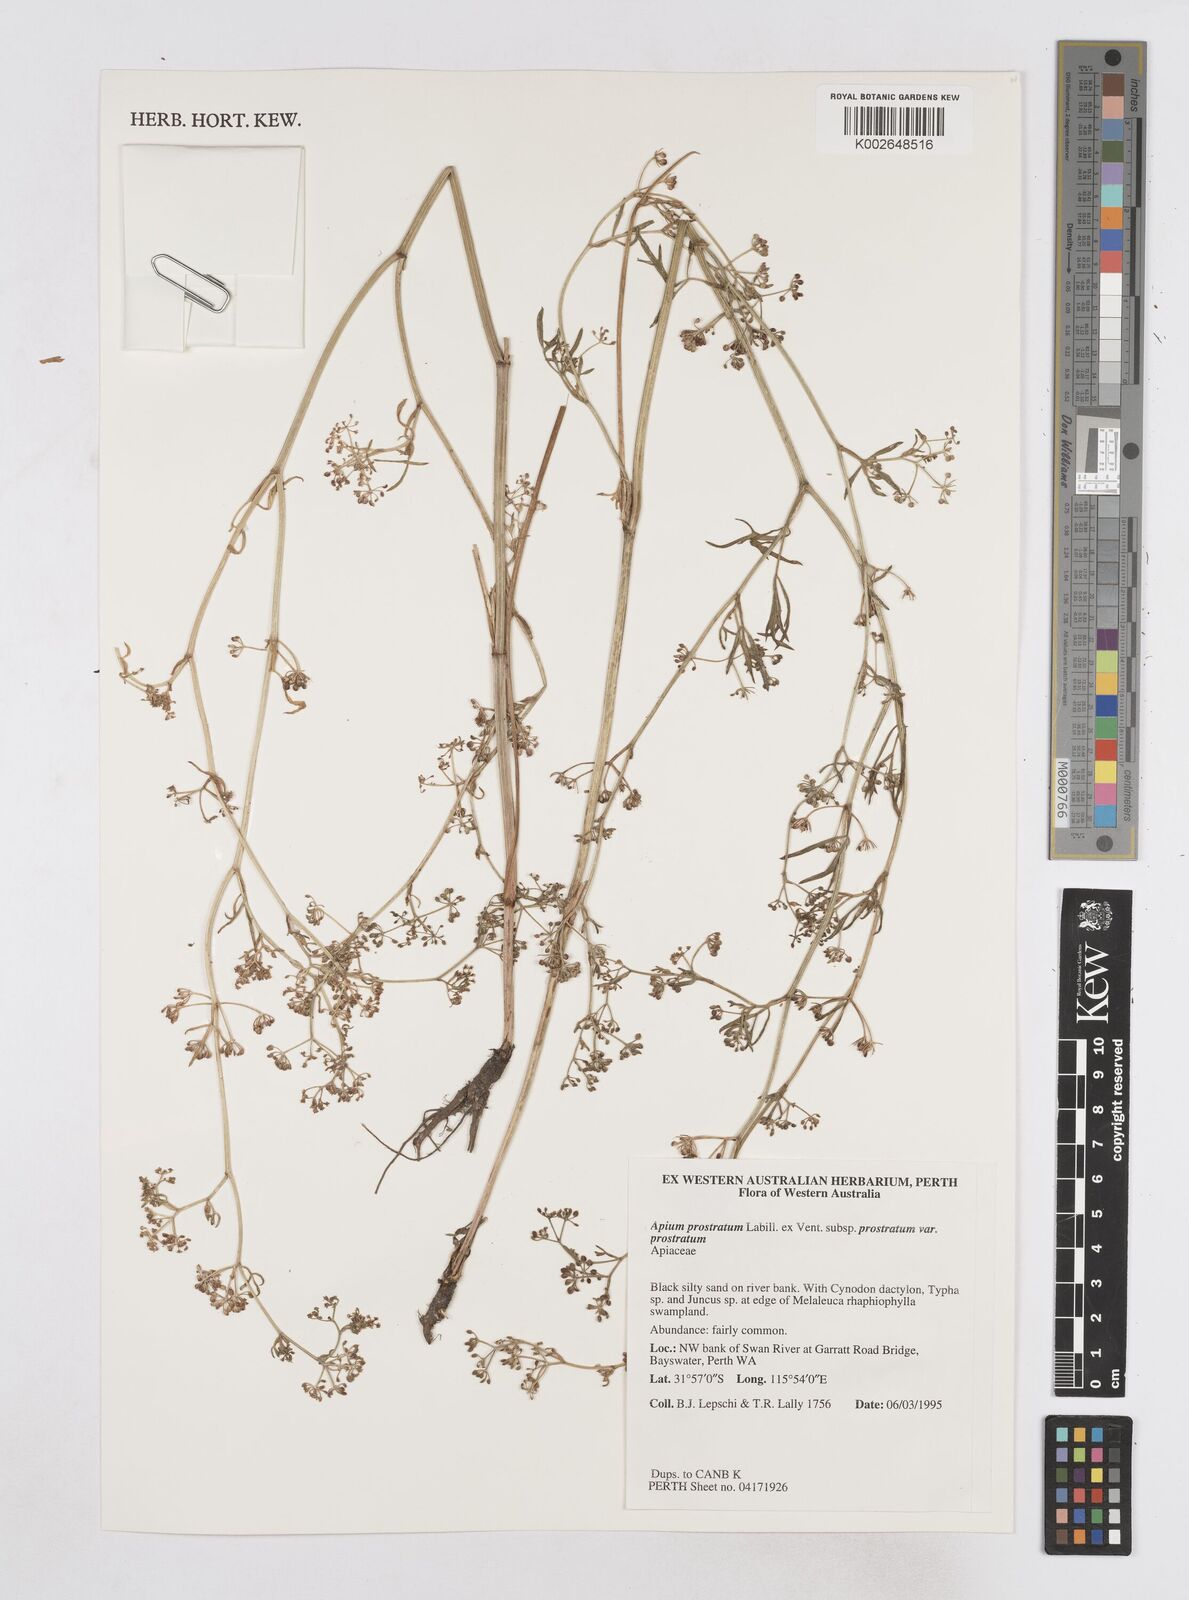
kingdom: Plantae
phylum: Tracheophyta
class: Magnoliopsida
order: Apiales
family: Apiaceae
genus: Apium
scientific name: Apium prostratum
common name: Prostrate marshwort
